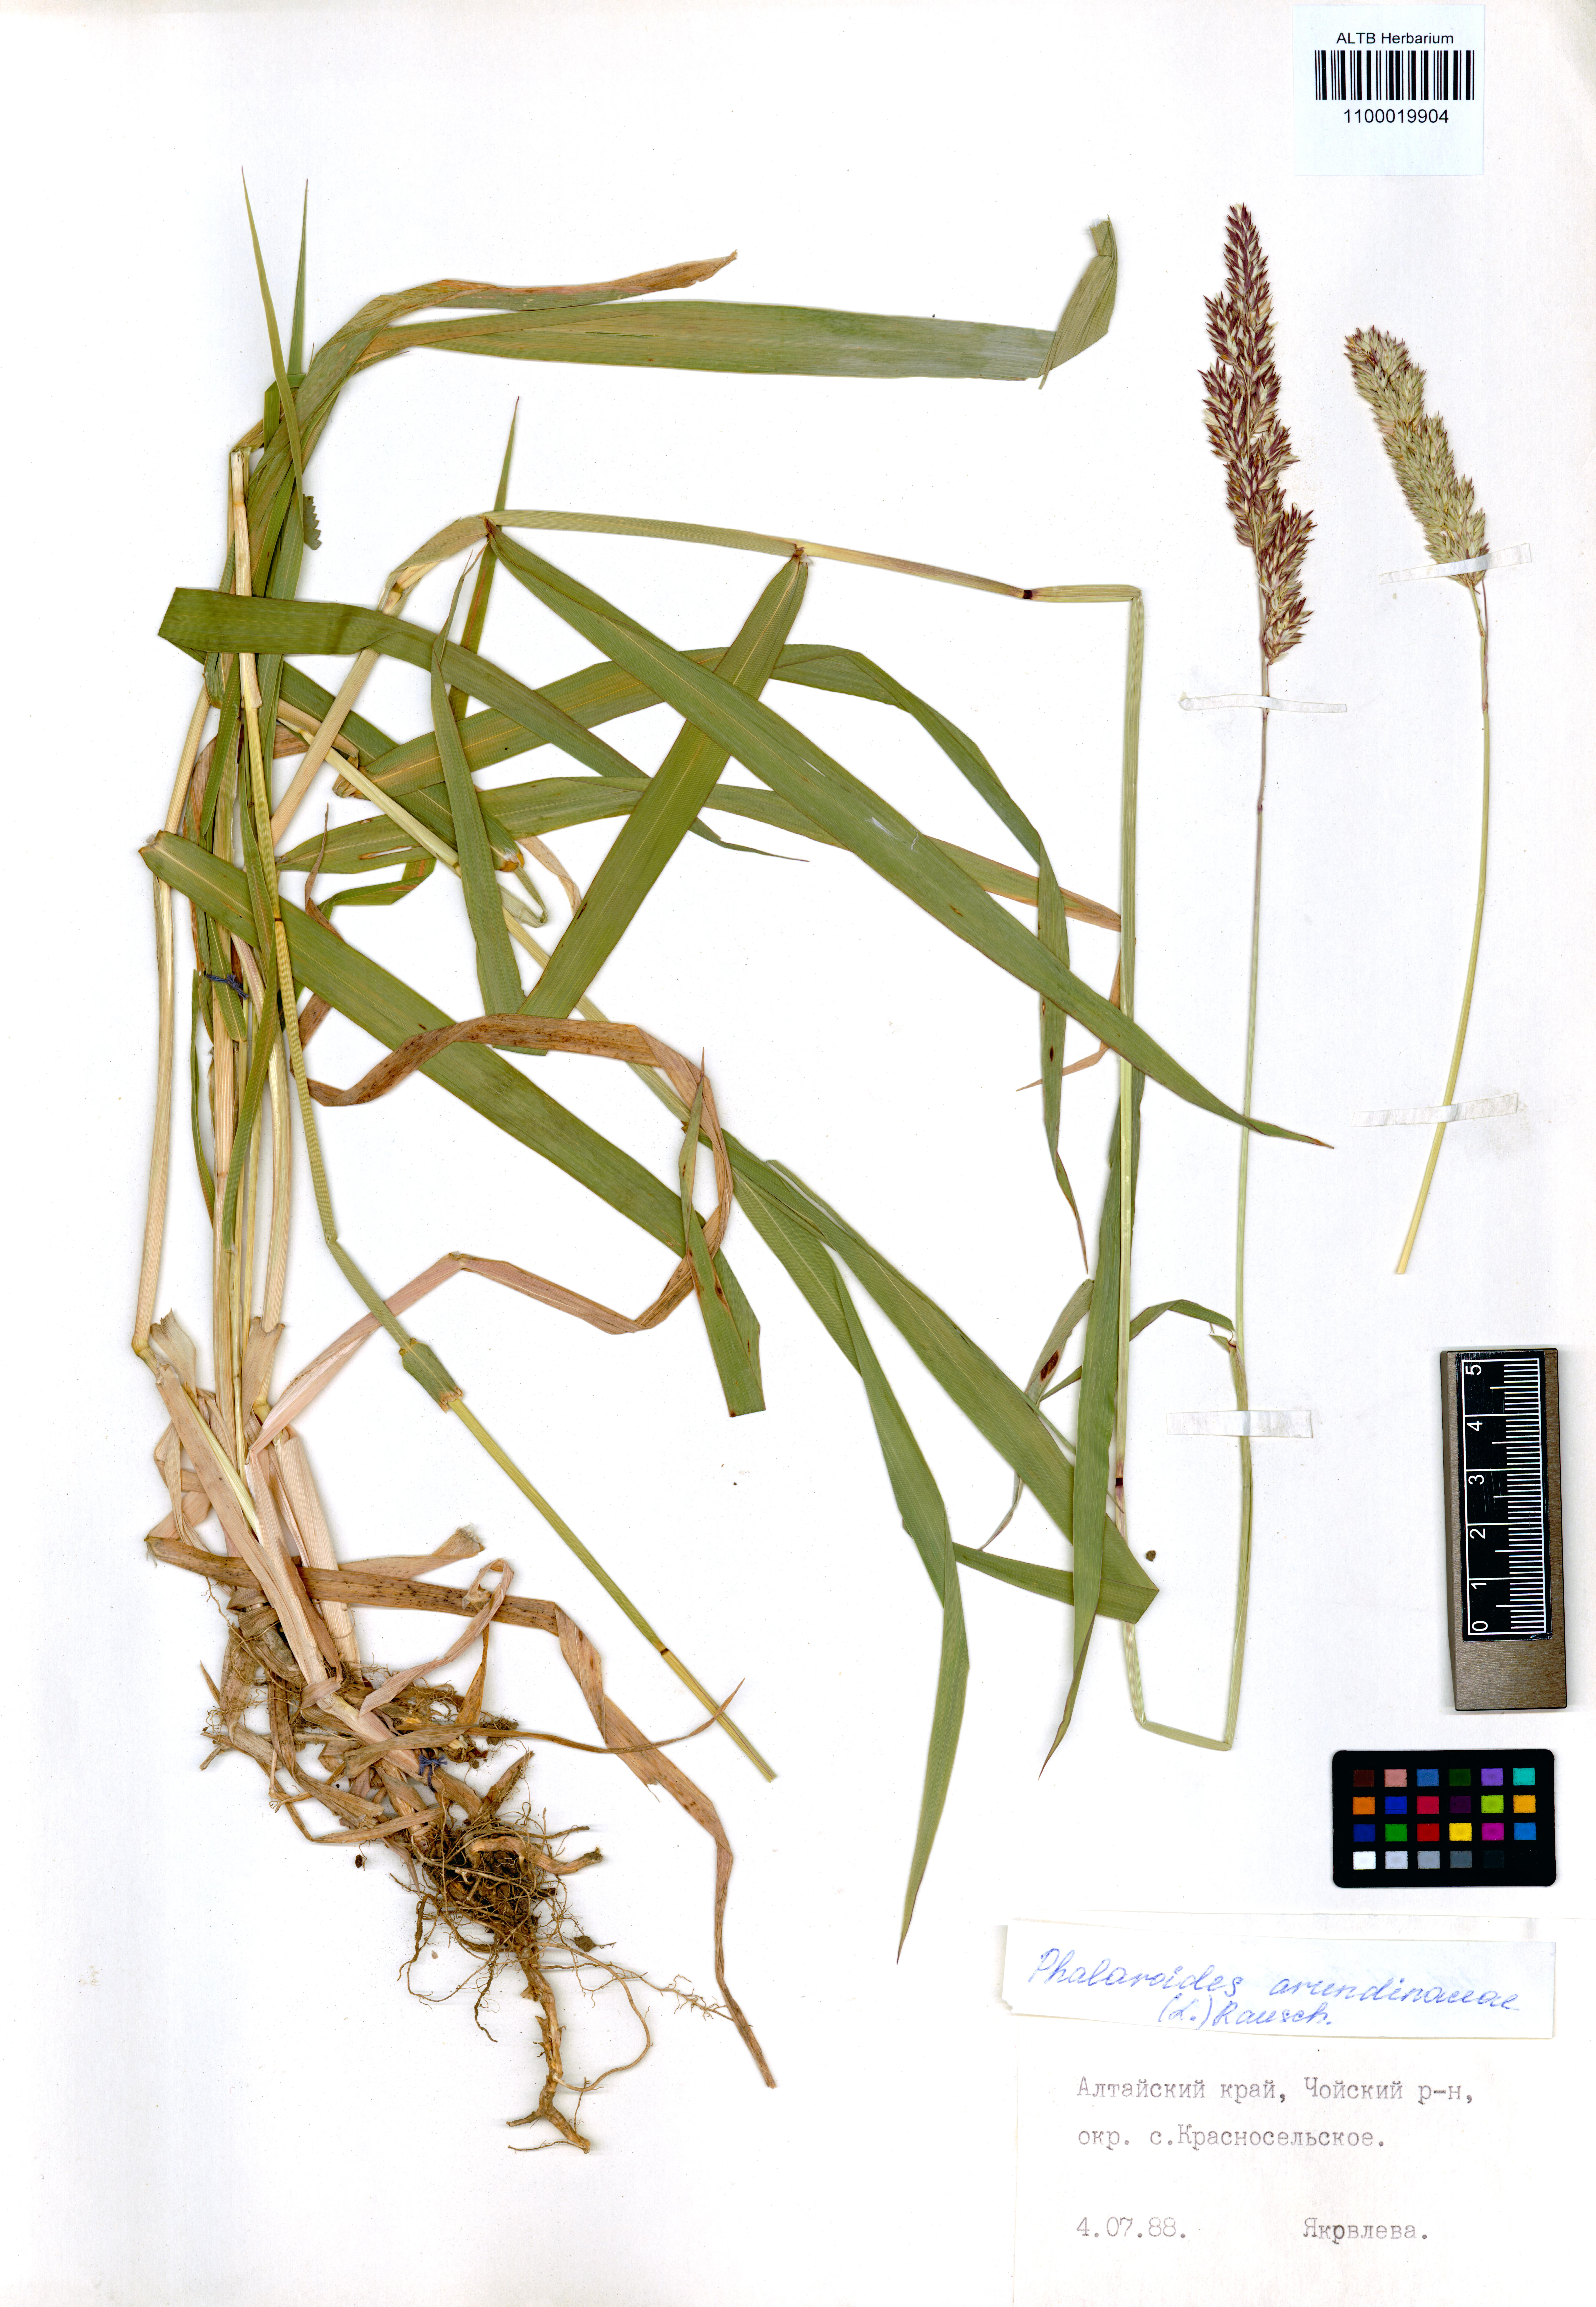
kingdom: Plantae
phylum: Tracheophyta
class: Liliopsida
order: Poales
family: Poaceae
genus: Phalaris
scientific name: Phalaris arundinacea
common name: Reed canary-grass
